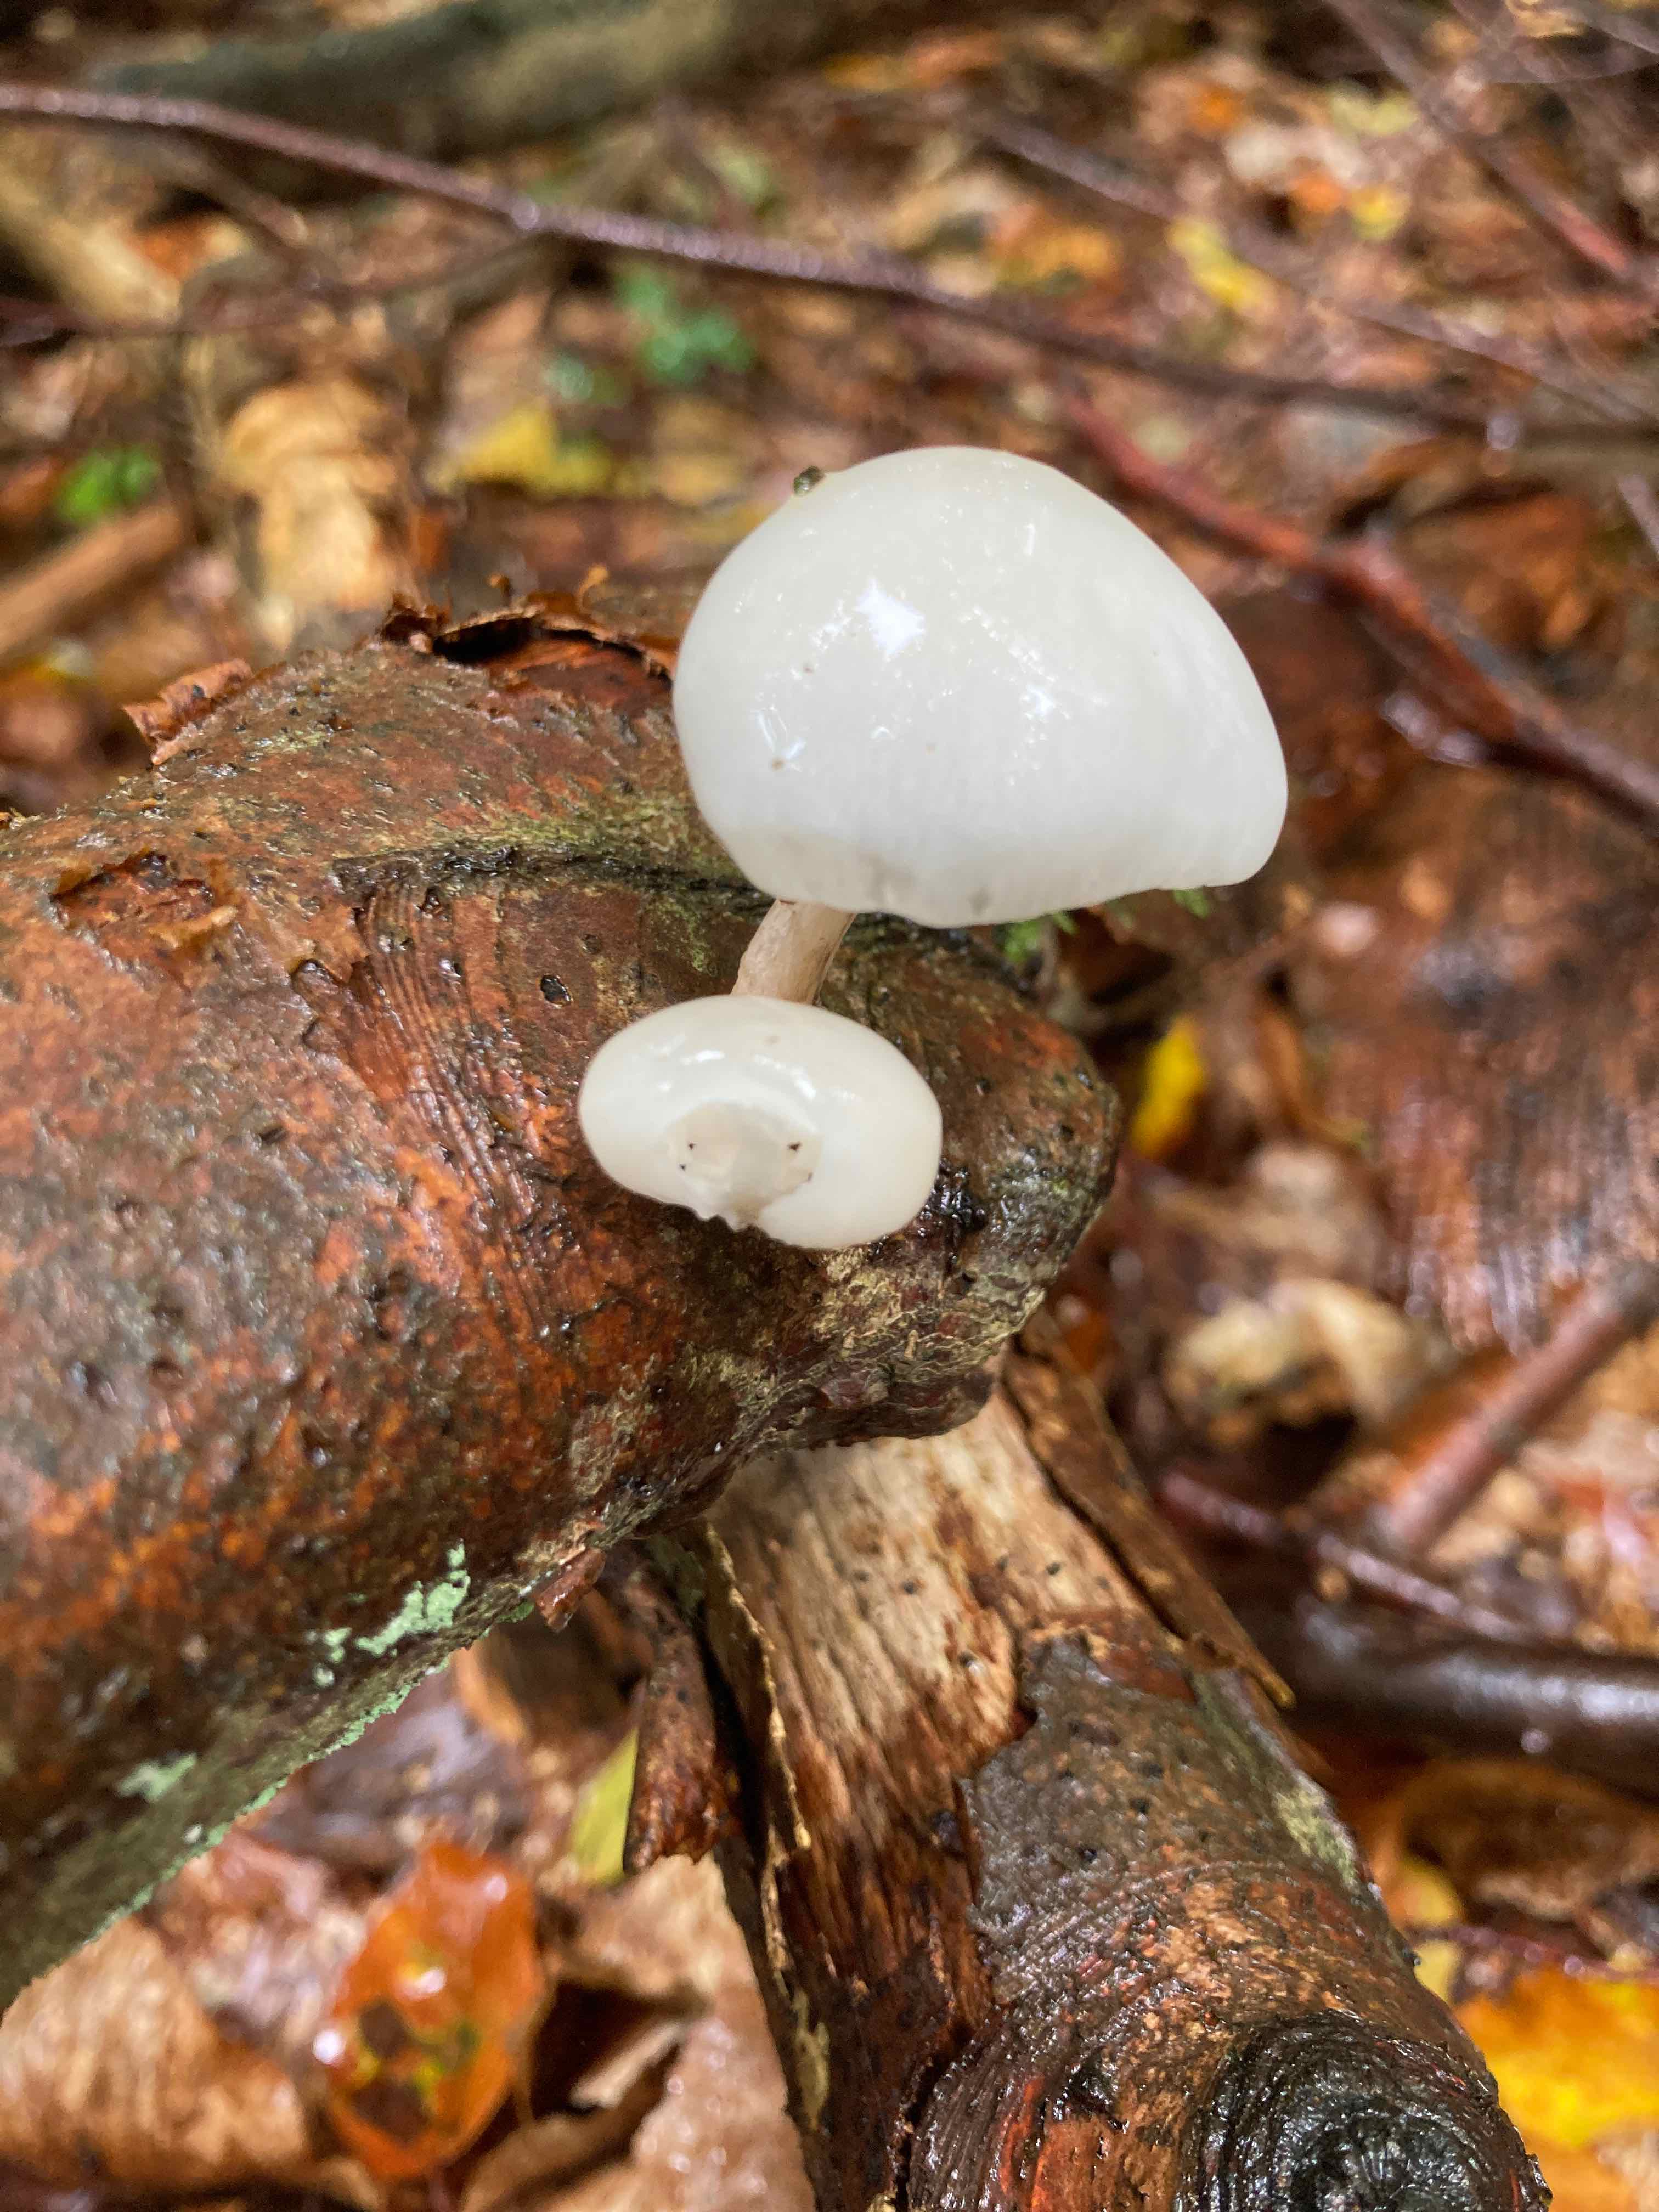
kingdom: Fungi
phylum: Basidiomycota
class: Agaricomycetes
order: Agaricales
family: Physalacriaceae
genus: Mucidula
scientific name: Mucidula mucida
